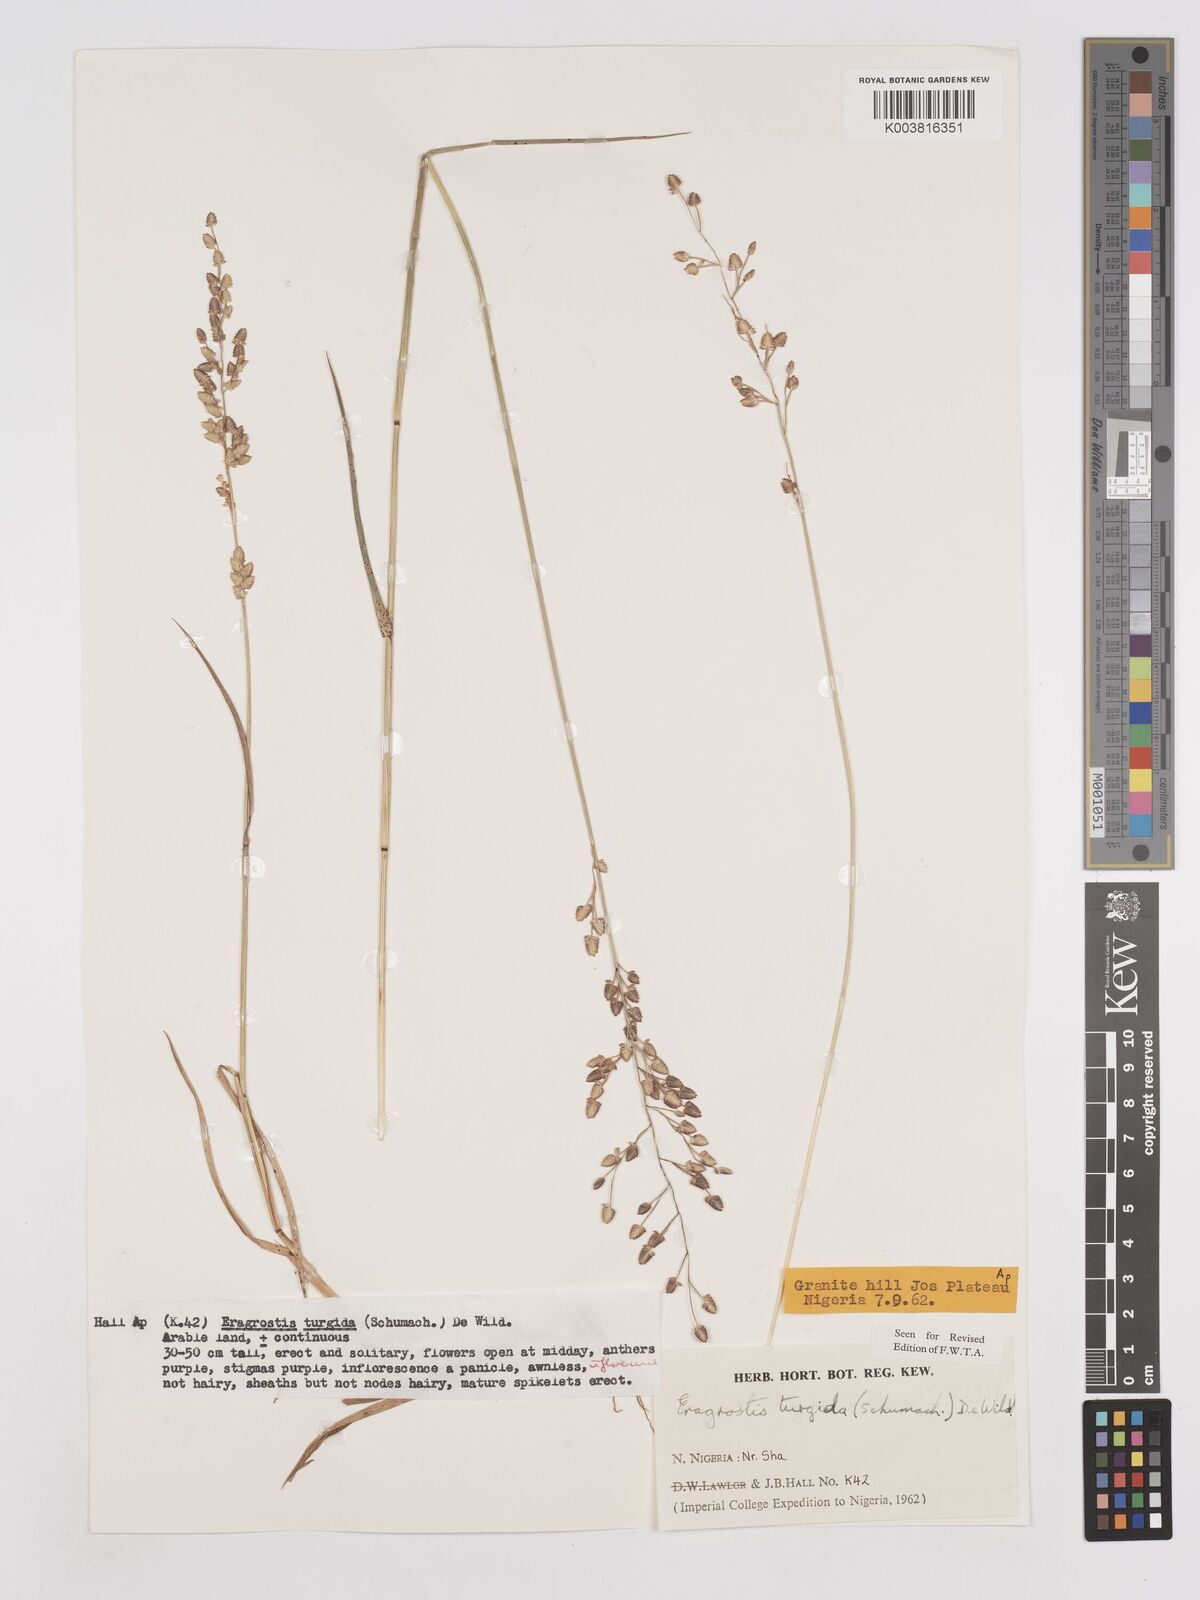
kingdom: Plantae
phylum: Tracheophyta
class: Liliopsida
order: Poales
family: Poaceae
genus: Eragrostis
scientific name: Eragrostis turgida
